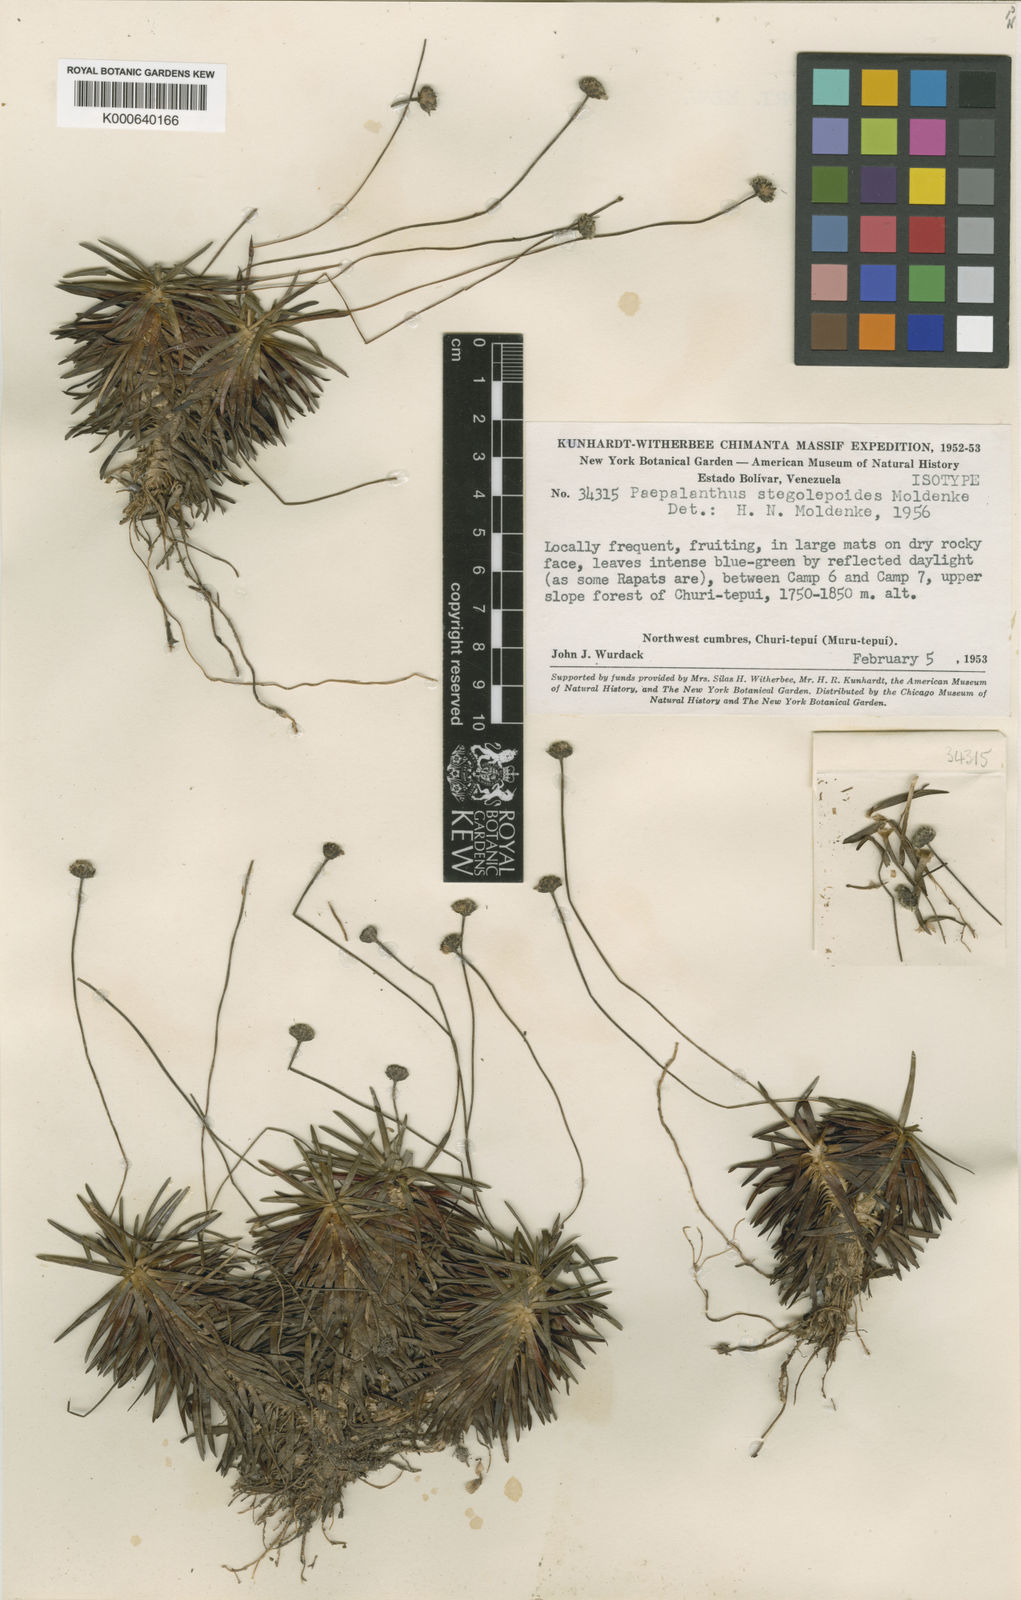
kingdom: Plantae
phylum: Tracheophyta
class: Liliopsida
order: Poales
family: Eriocaulaceae
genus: Paepalanthus
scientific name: Paepalanthus stegolepoides
